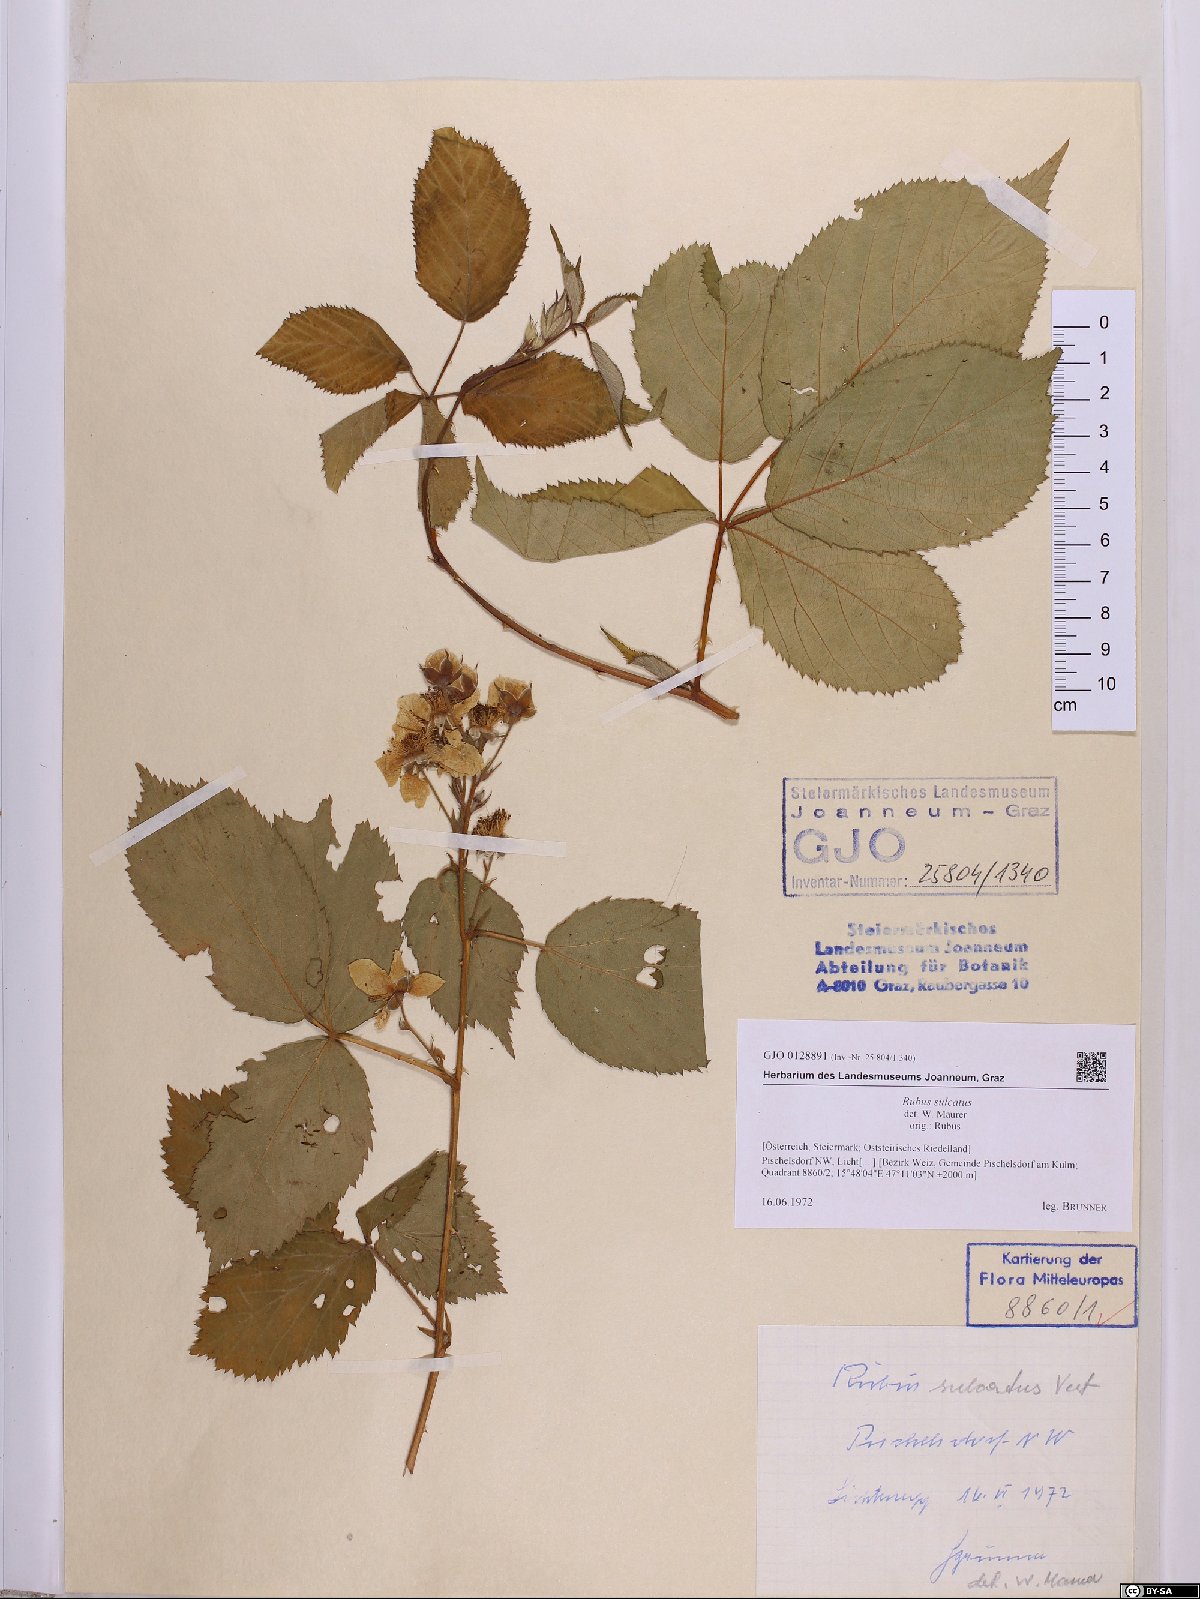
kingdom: Plantae
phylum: Tracheophyta
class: Magnoliopsida
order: Rosales
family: Rosaceae
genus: Rubus
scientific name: Rubus sulcatus
